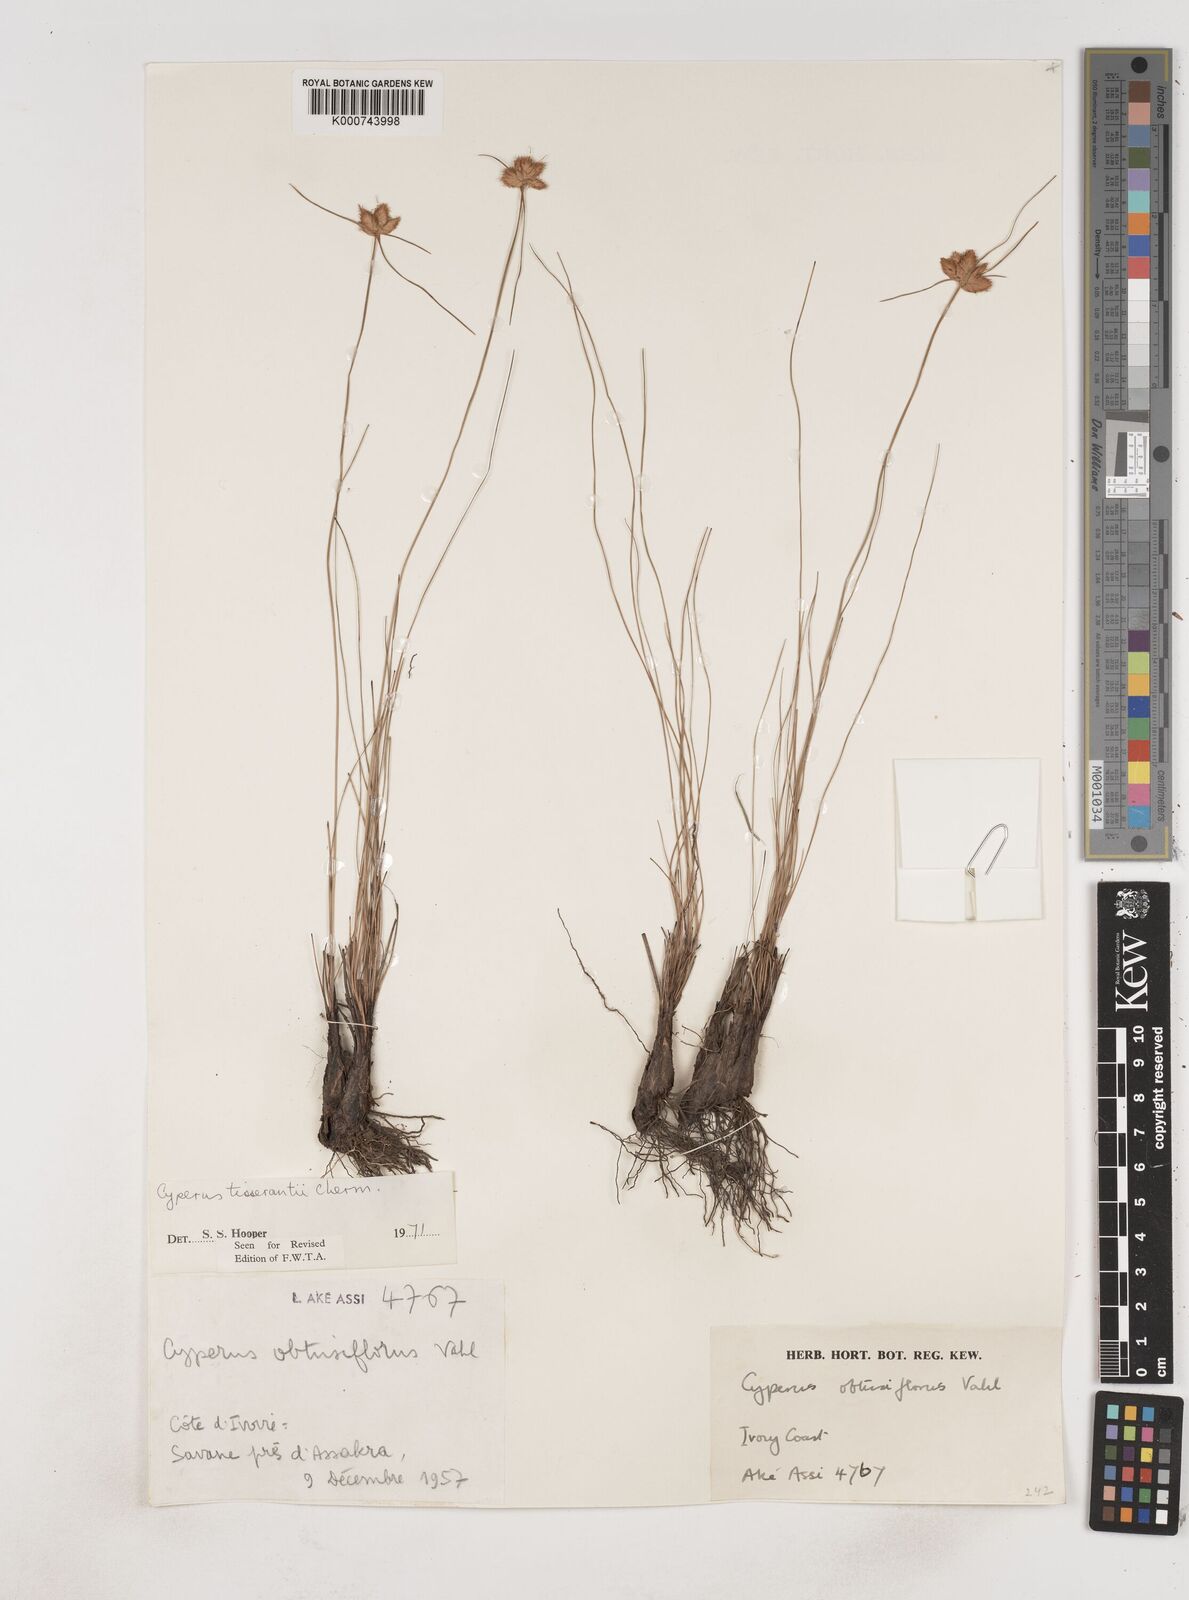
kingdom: Plantae
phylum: Tracheophyta
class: Liliopsida
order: Poales
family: Cyperaceae
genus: Cyperus
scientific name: Cyperus niveus
